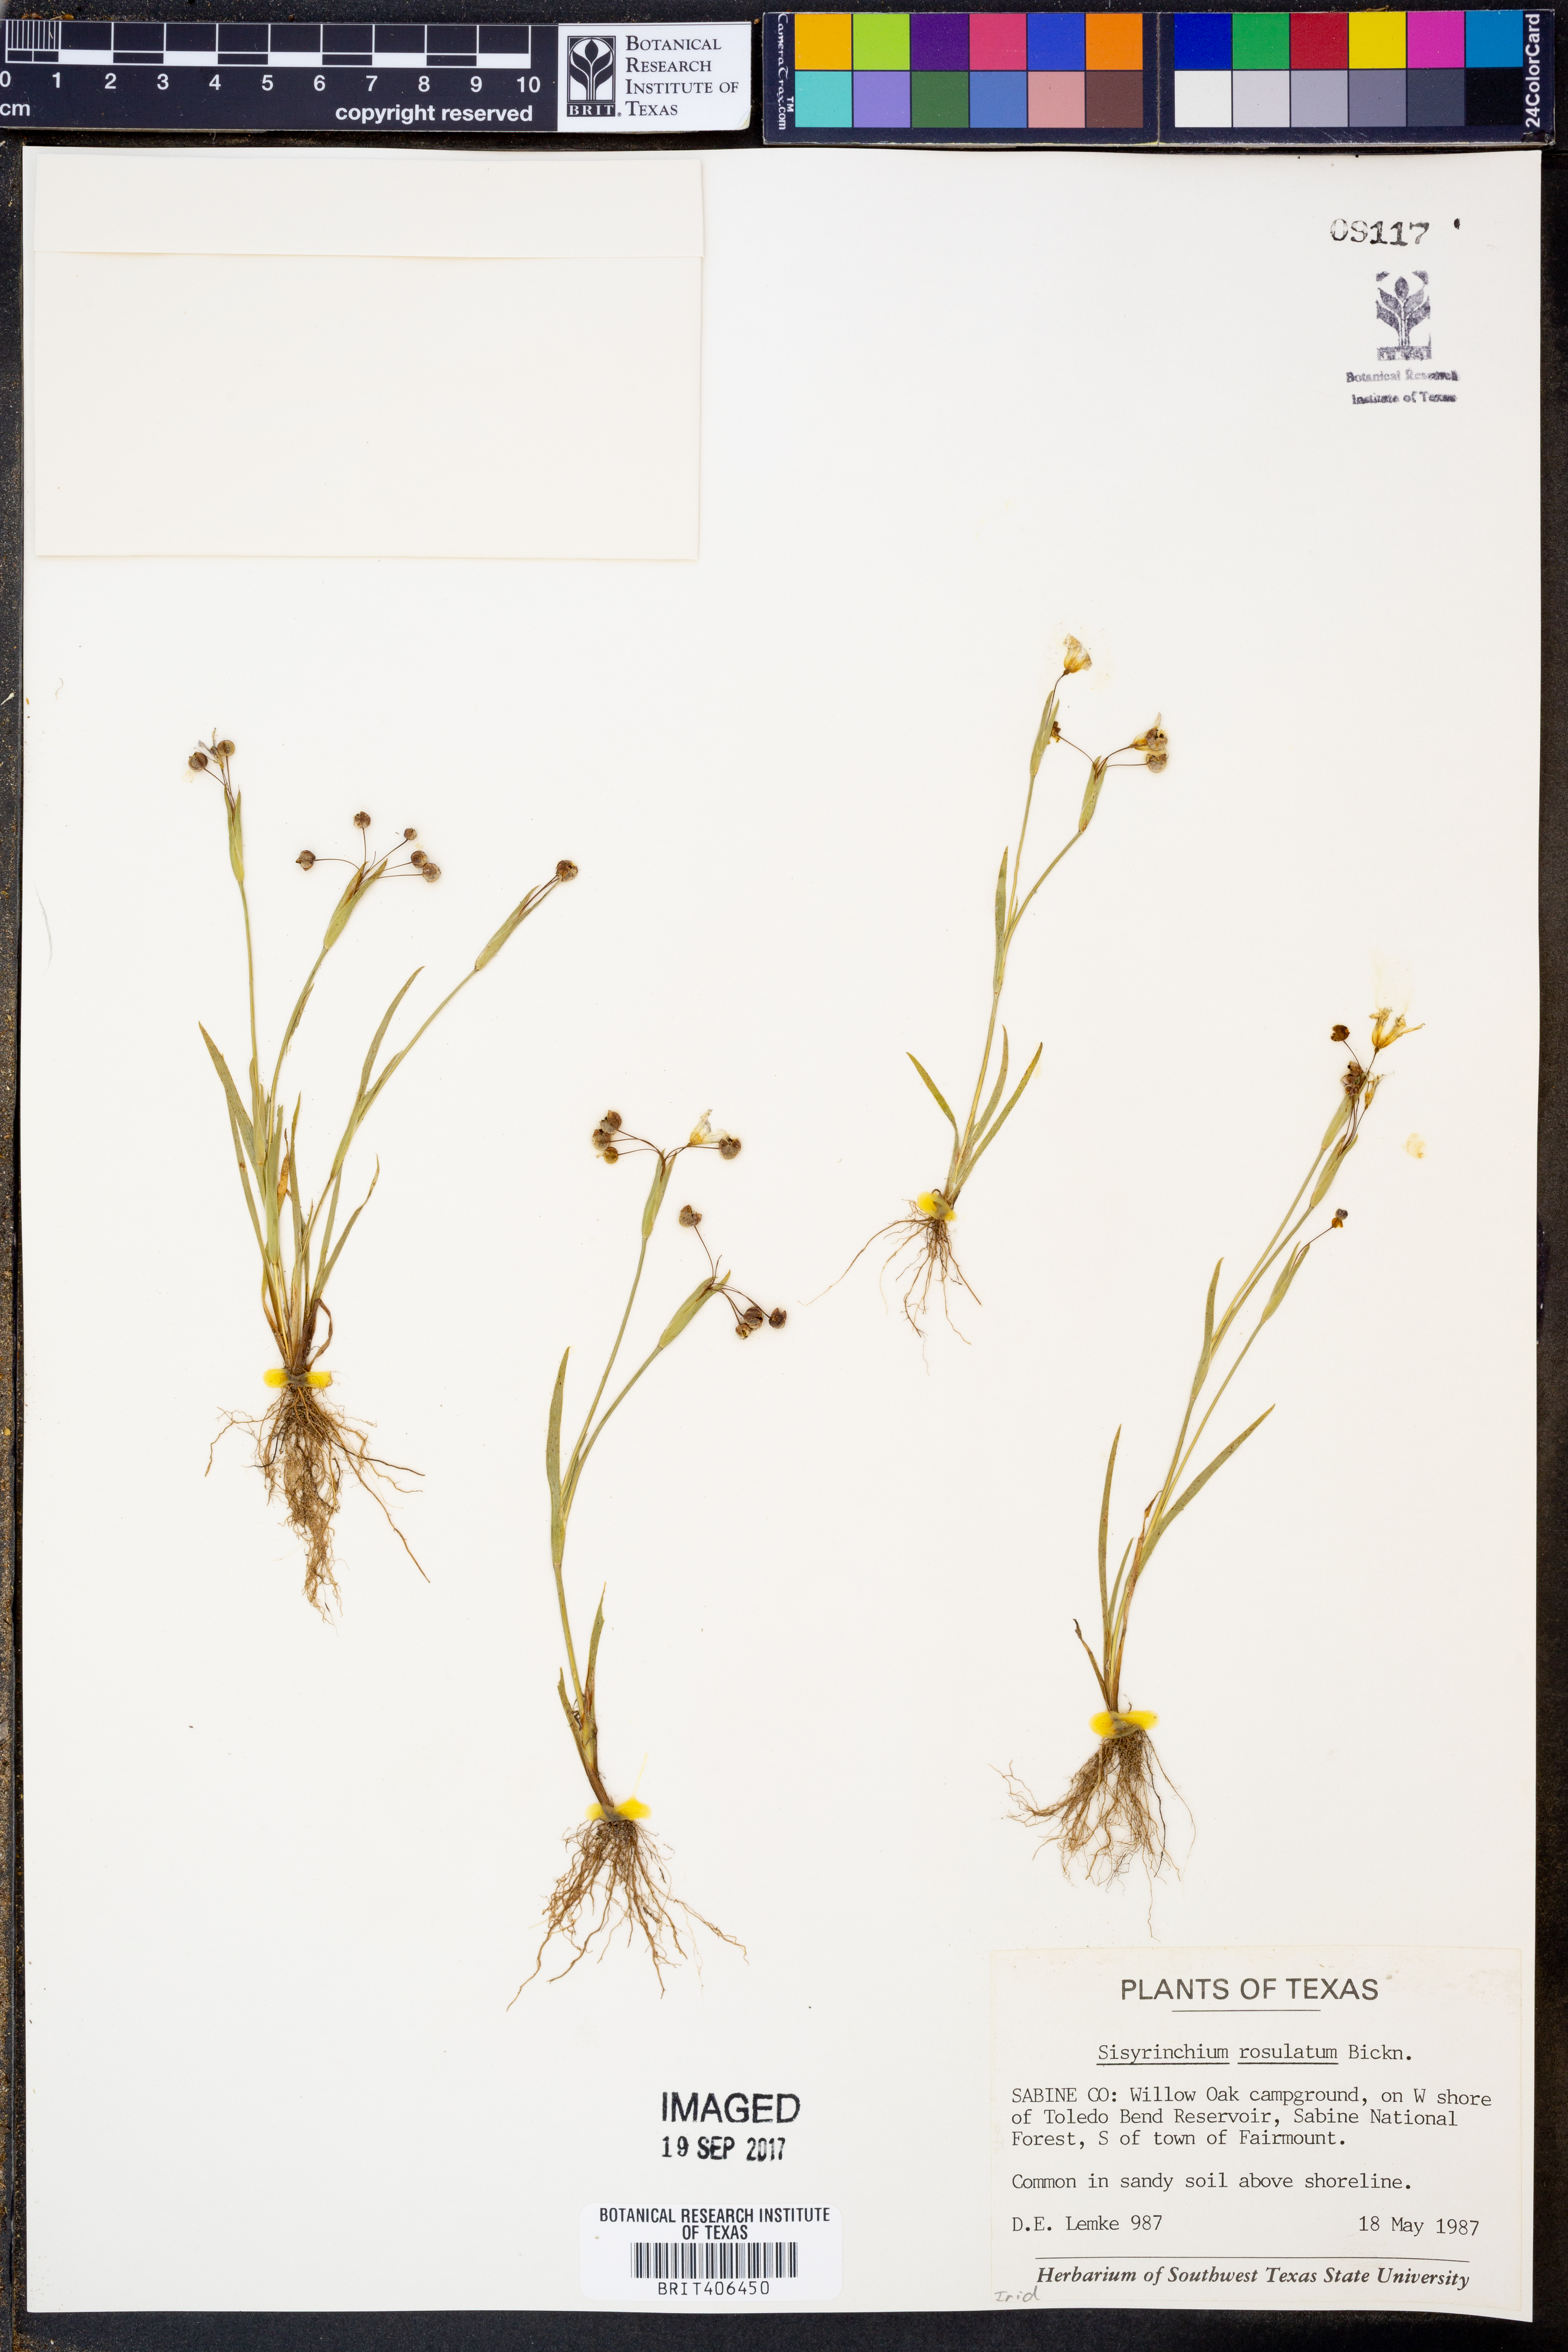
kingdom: Plantae
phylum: Tracheophyta
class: Liliopsida
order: Asparagales
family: Iridaceae
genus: Sisyrinchium
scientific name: Sisyrinchium rosulatum
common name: Annual blue-eyed grass
